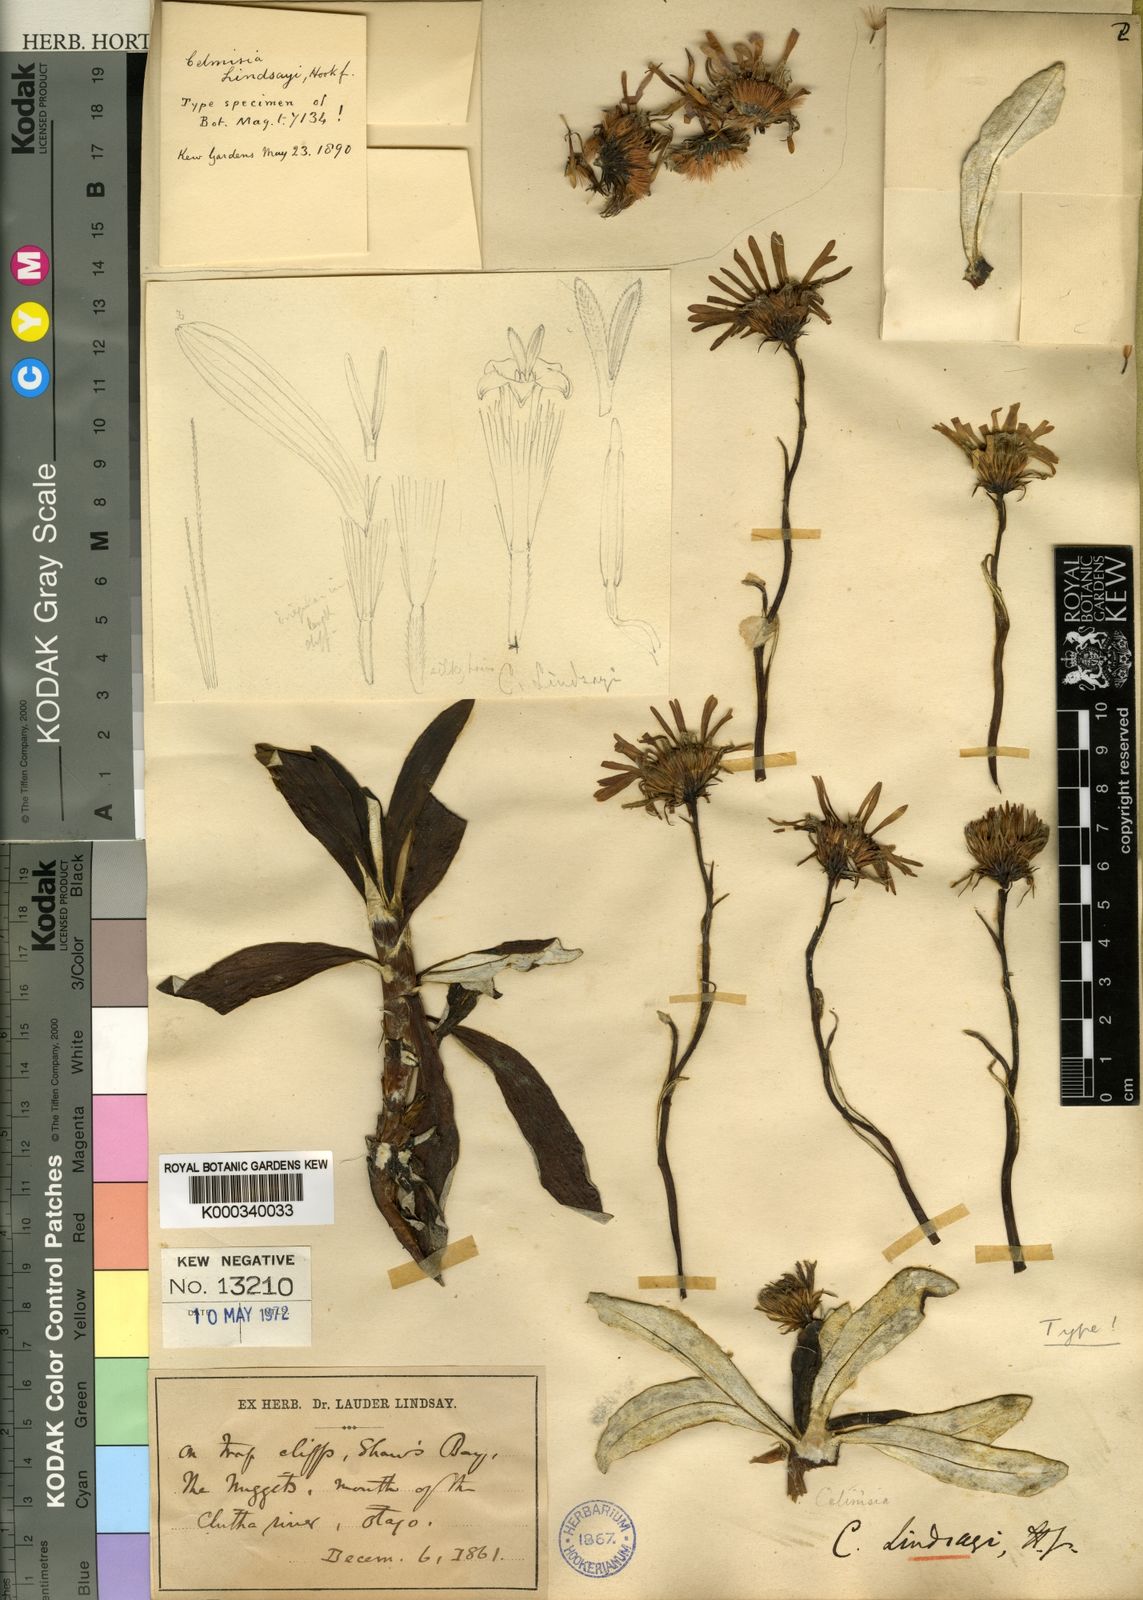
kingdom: Plantae
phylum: Tracheophyta
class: Magnoliopsida
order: Asterales
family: Asteraceae
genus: Celmisia
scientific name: Celmisia lindsayi
